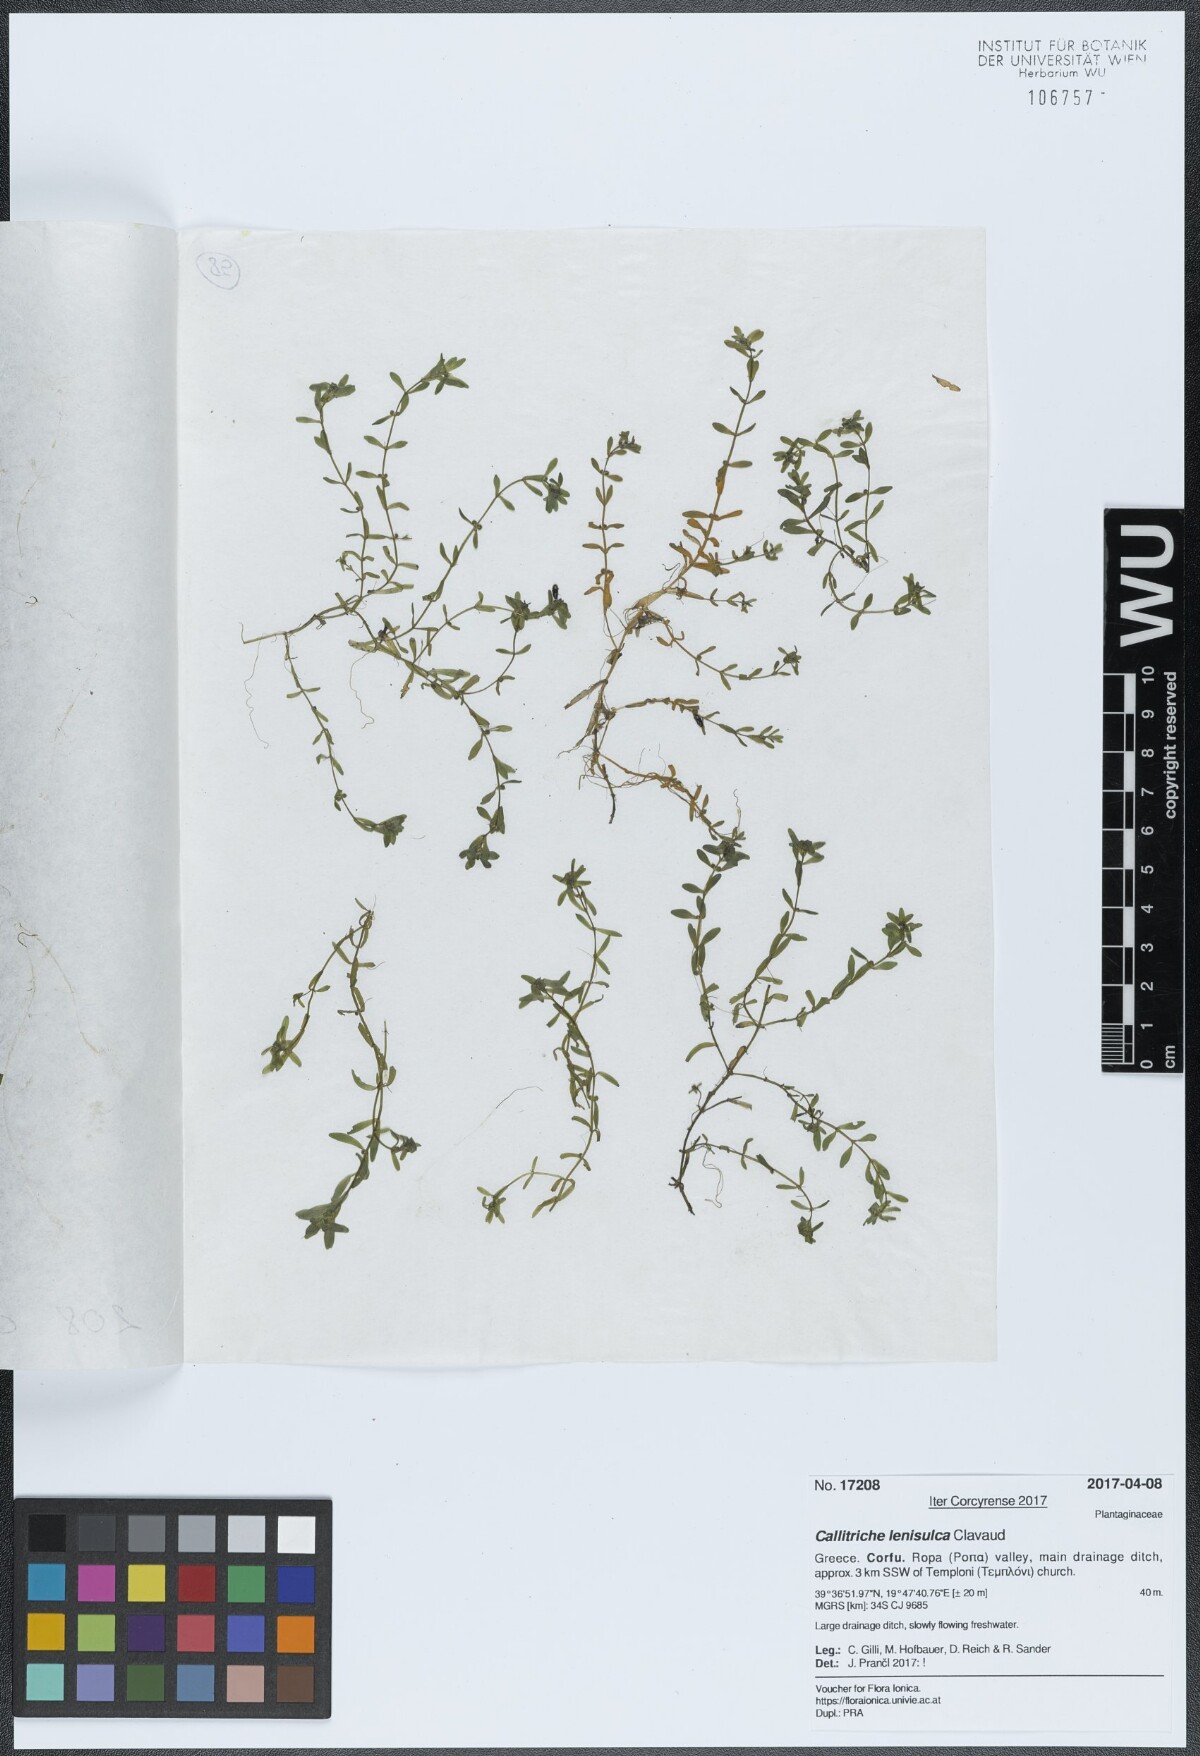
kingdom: Plantae
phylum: Tracheophyta
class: Magnoliopsida
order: Lamiales
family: Plantaginaceae
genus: Callitriche
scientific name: Callitriche lenisulca
